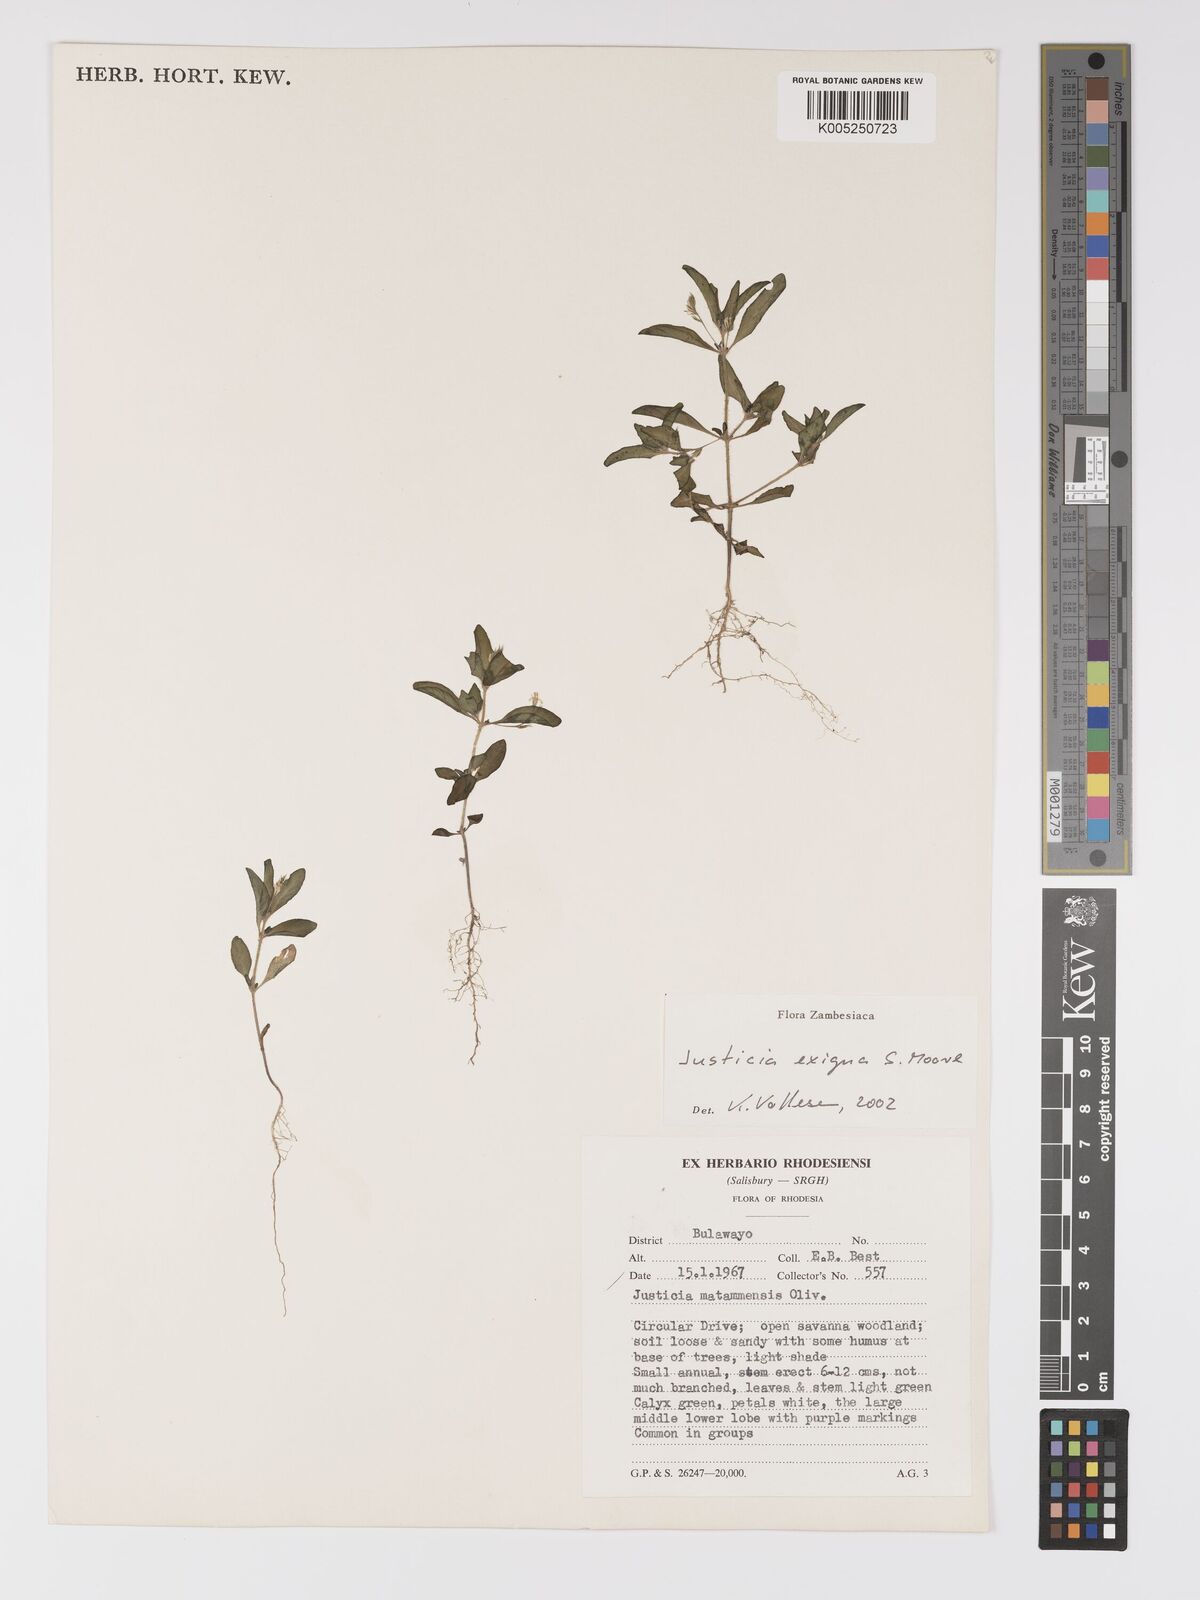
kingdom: Plantae
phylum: Tracheophyta
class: Magnoliopsida
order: Lamiales
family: Acanthaceae
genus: Justicia
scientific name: Justicia exigua
